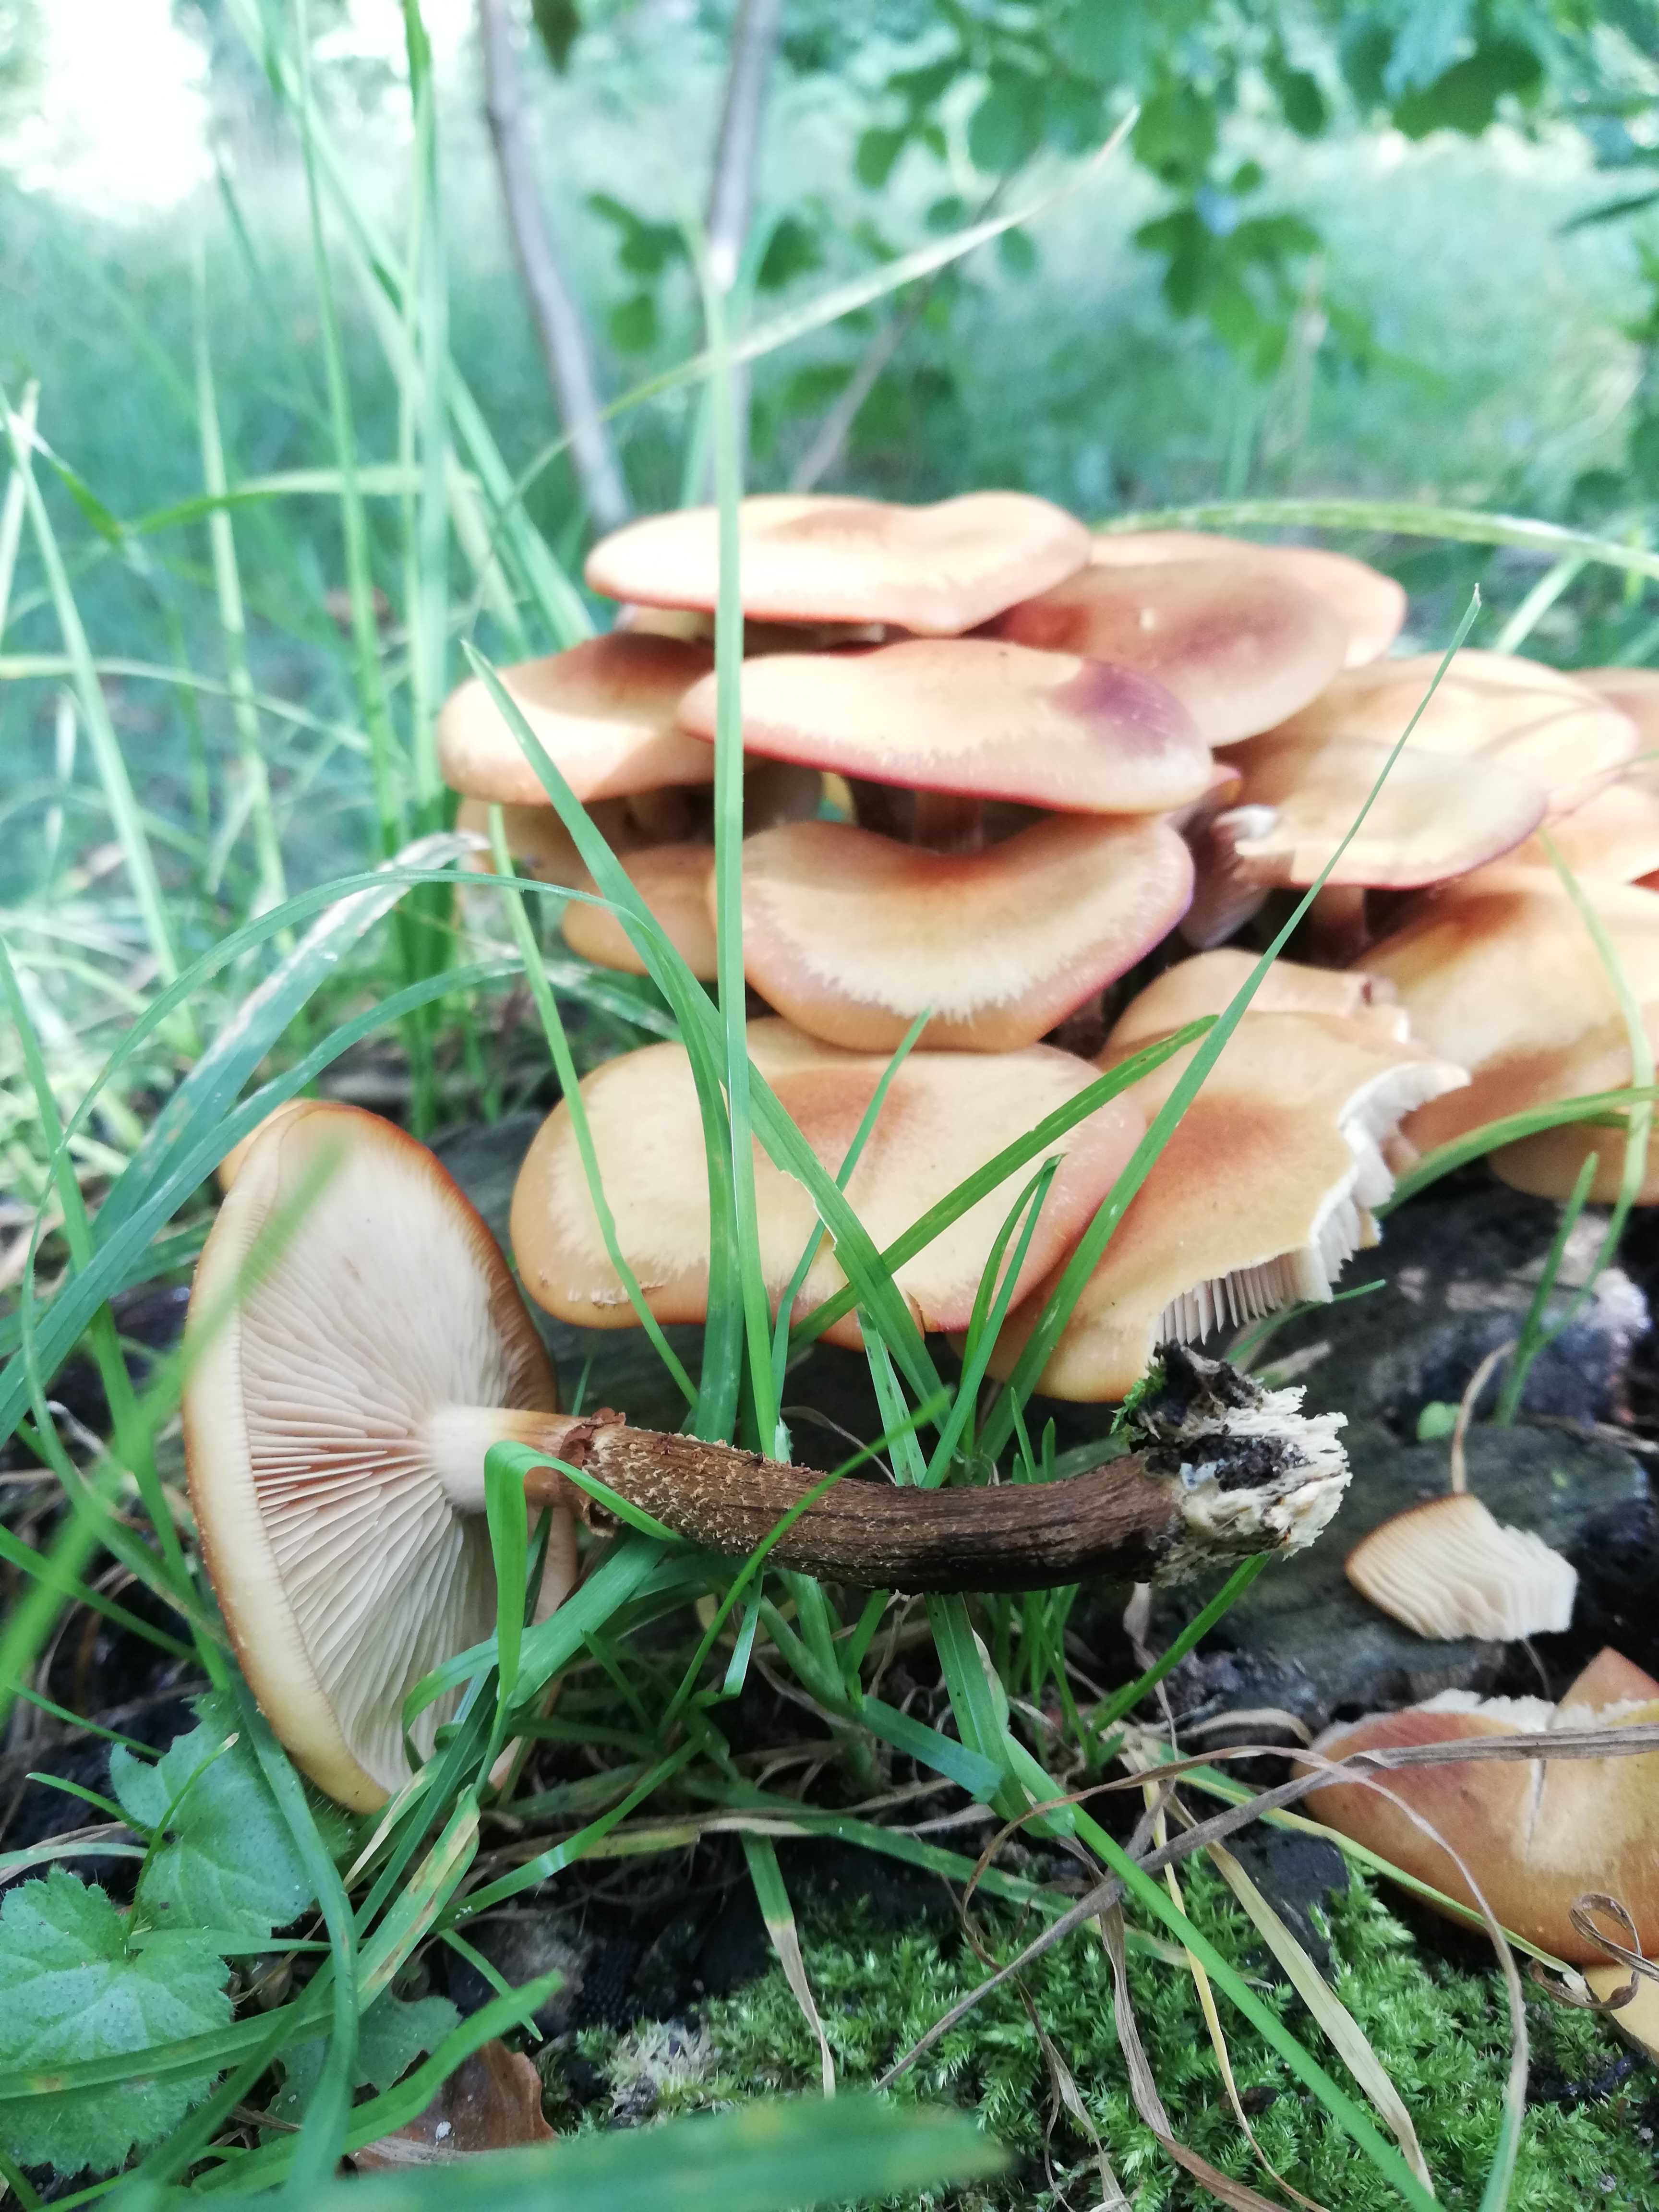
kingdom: Fungi
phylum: Basidiomycota
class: Agaricomycetes
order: Agaricales
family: Strophariaceae
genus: Kuehneromyces
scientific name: Kuehneromyces mutabilis
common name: foranderlig skælhat
